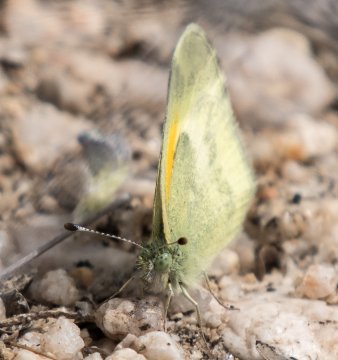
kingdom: Animalia
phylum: Arthropoda
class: Insecta
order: Lepidoptera
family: Pieridae
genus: Nathalis
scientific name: Nathalis iole
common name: Dainty Sulphur
